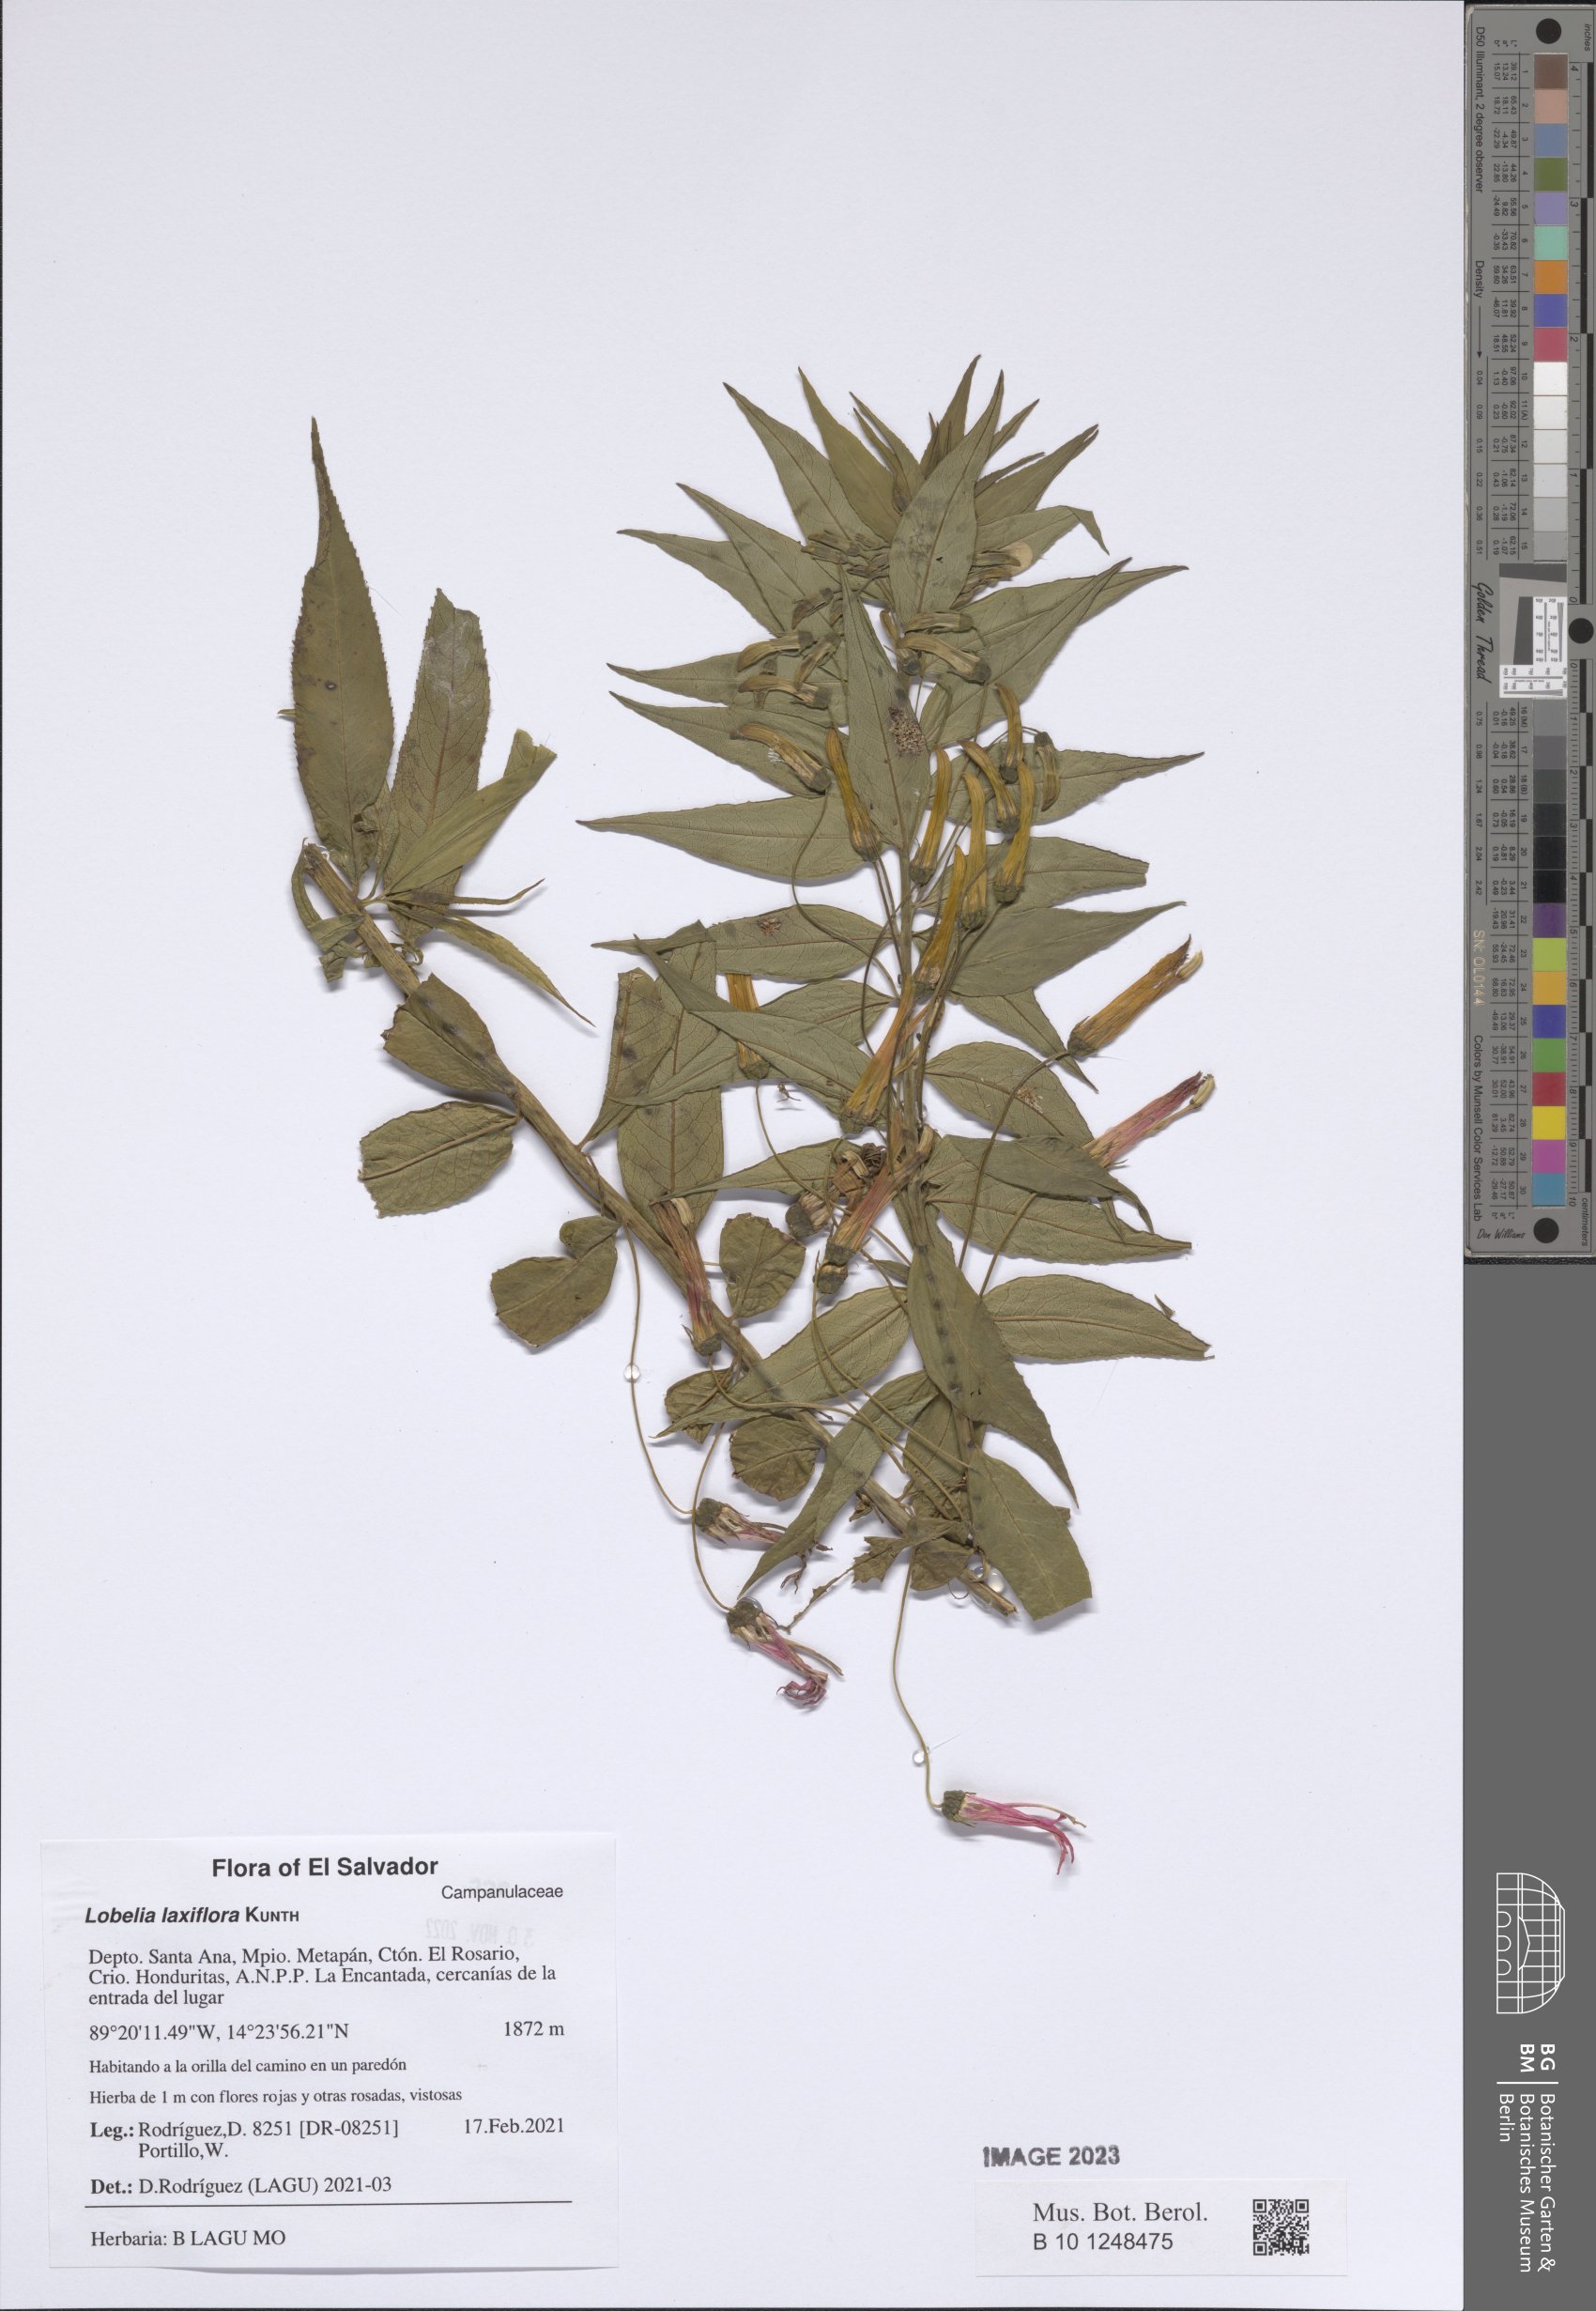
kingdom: Plantae
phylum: Tracheophyta
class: Magnoliopsida
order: Asterales
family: Campanulaceae
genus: Lobelia
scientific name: Lobelia laxiflora
